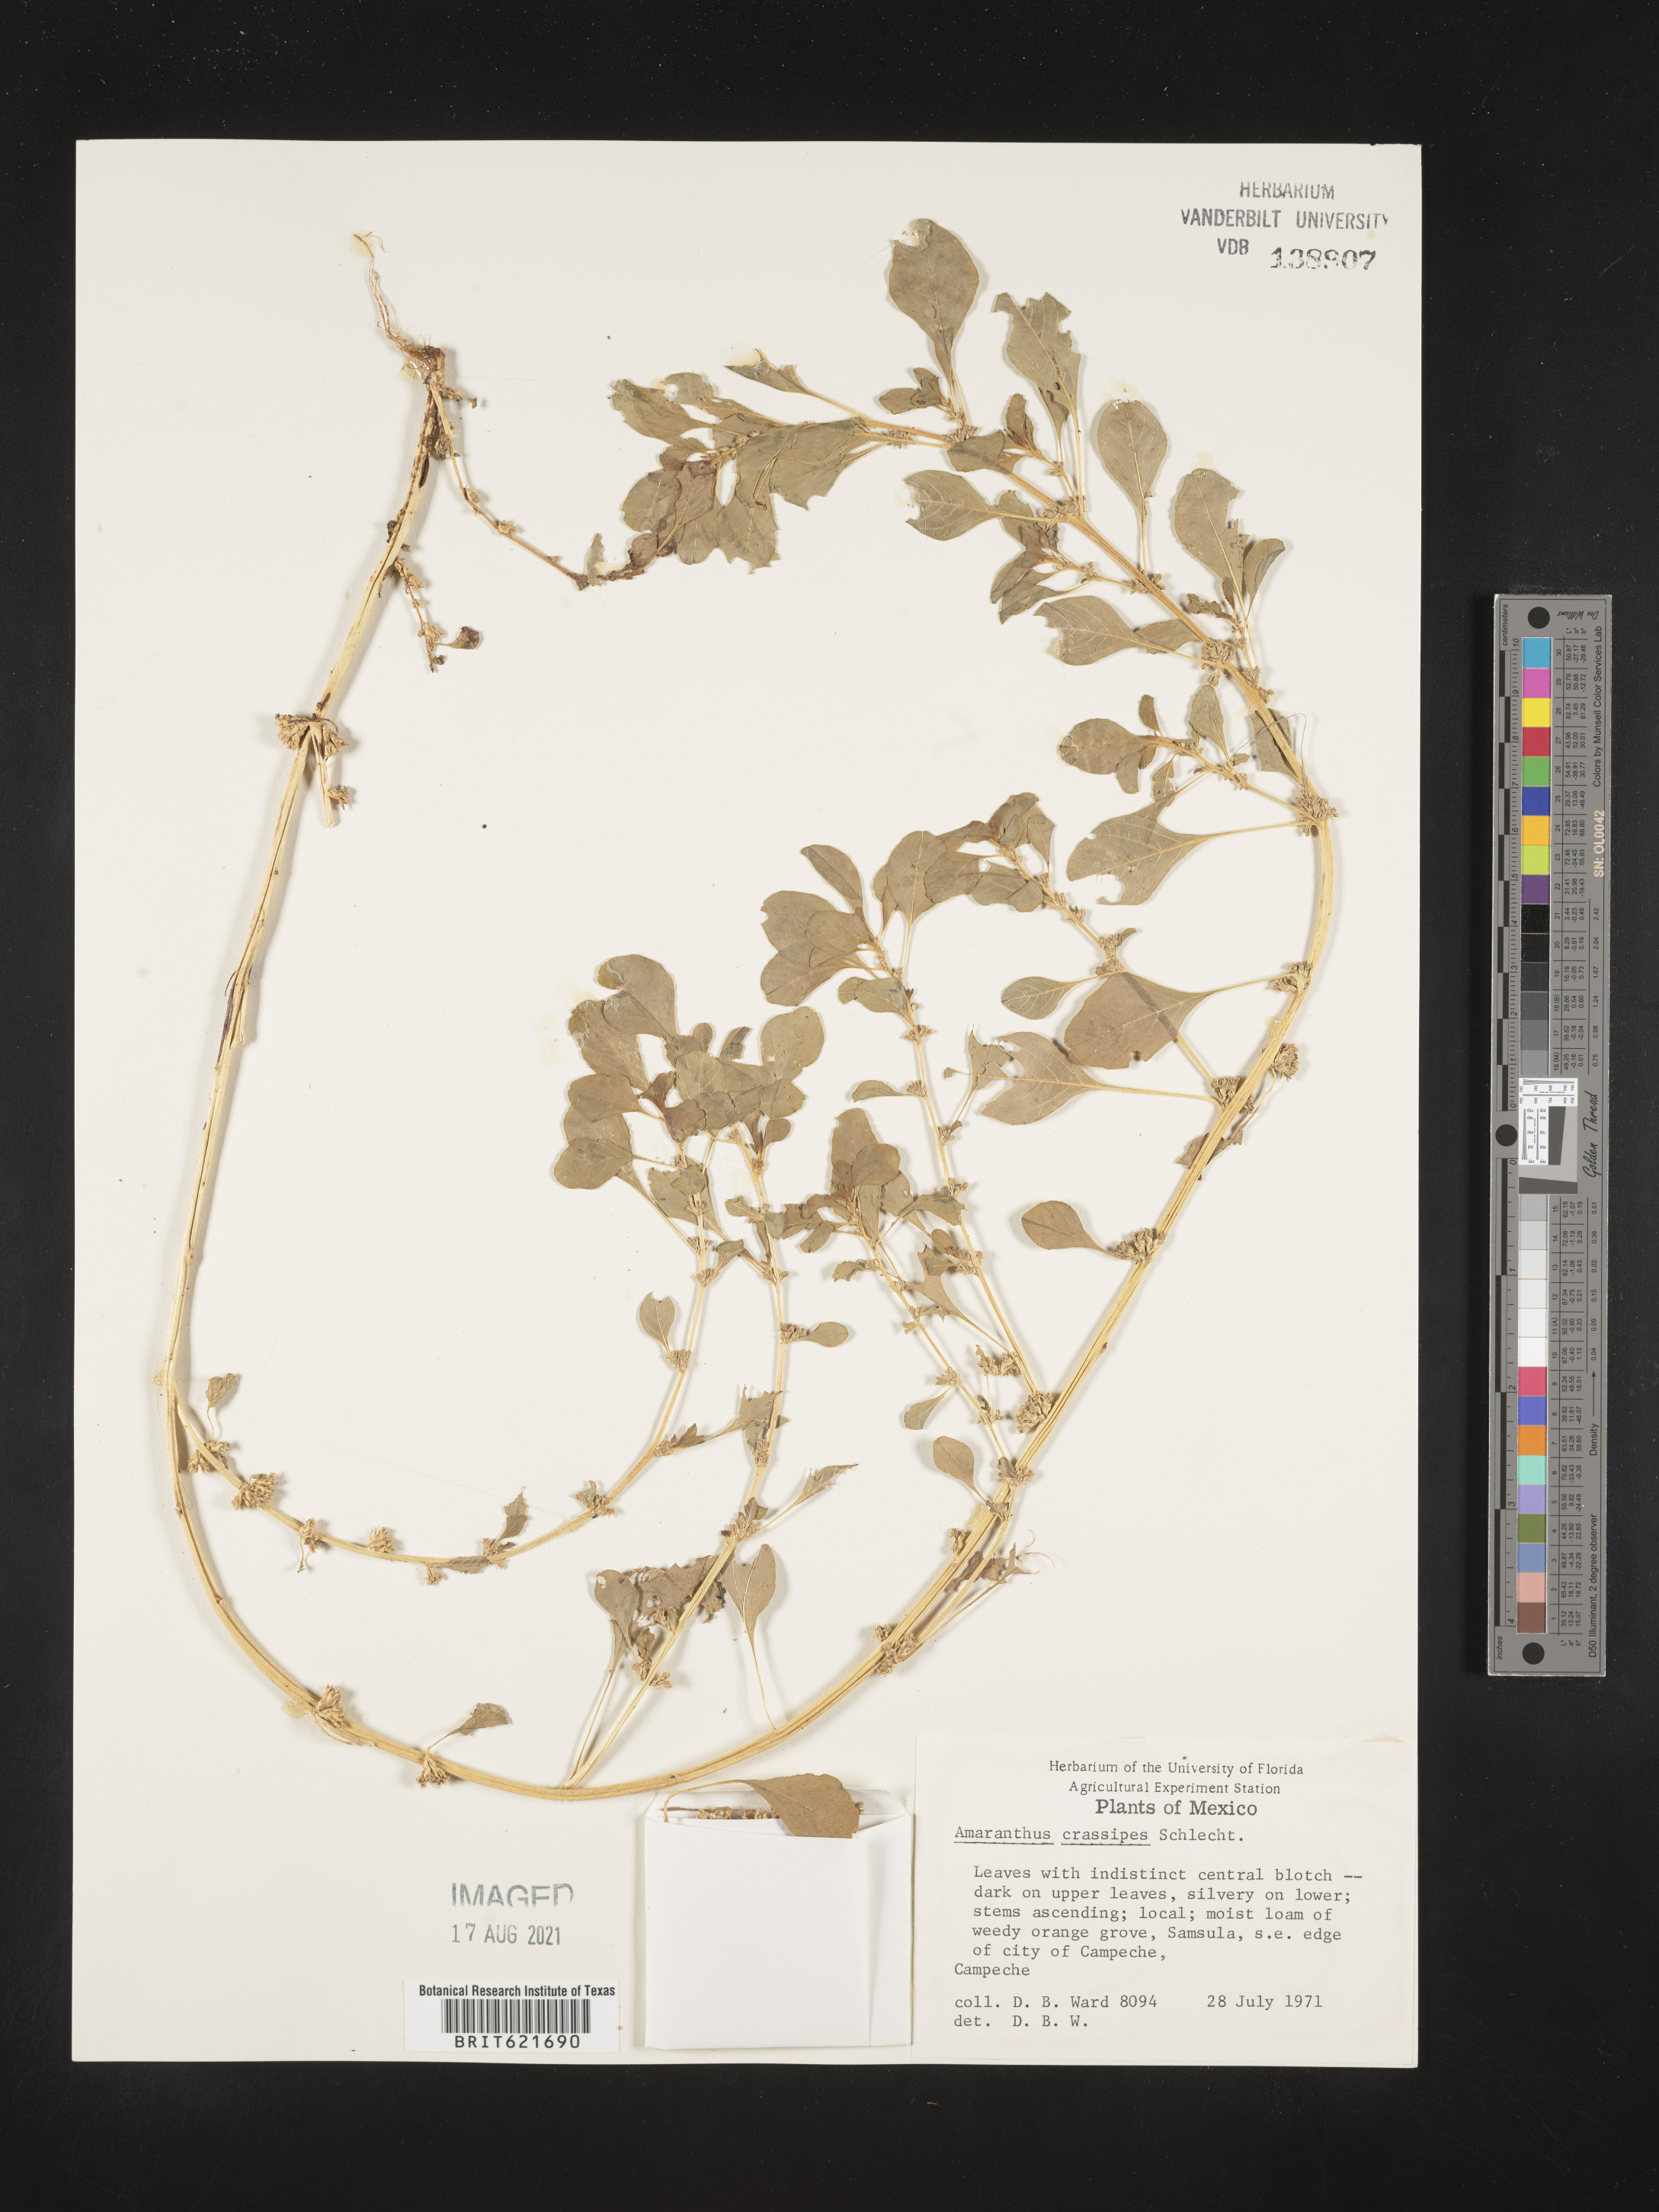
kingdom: Plantae
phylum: Tracheophyta
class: Magnoliopsida
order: Caryophyllales
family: Amaranthaceae
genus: Amaranthus
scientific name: Amaranthus
